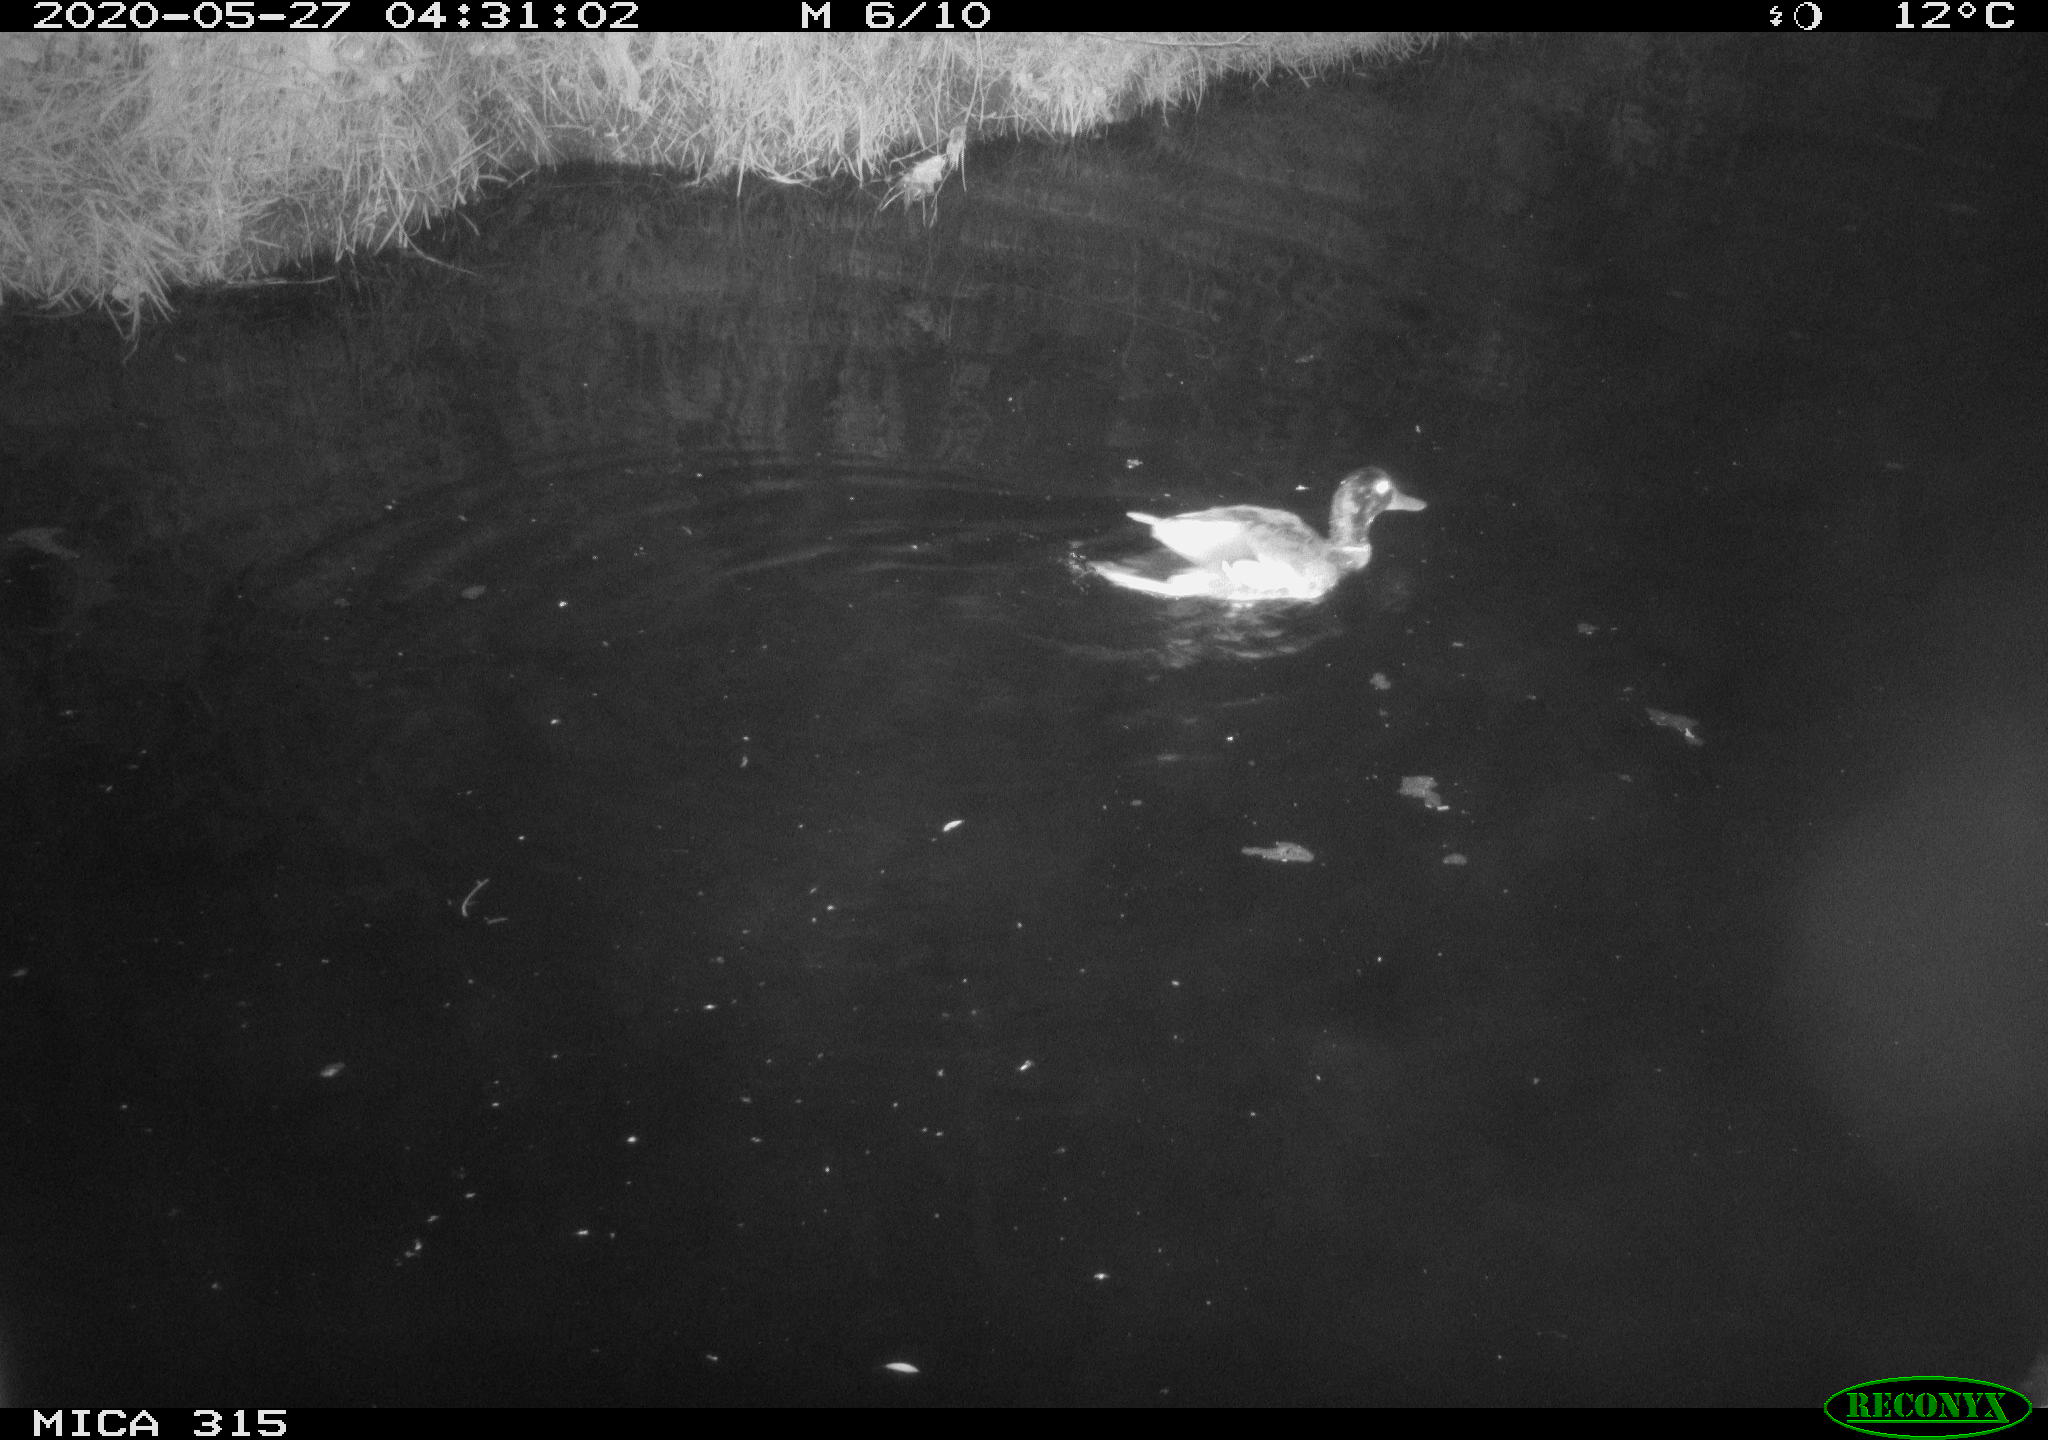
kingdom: Animalia
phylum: Chordata
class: Aves
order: Anseriformes
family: Anatidae
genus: Anas
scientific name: Anas platyrhynchos
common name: Mallard
